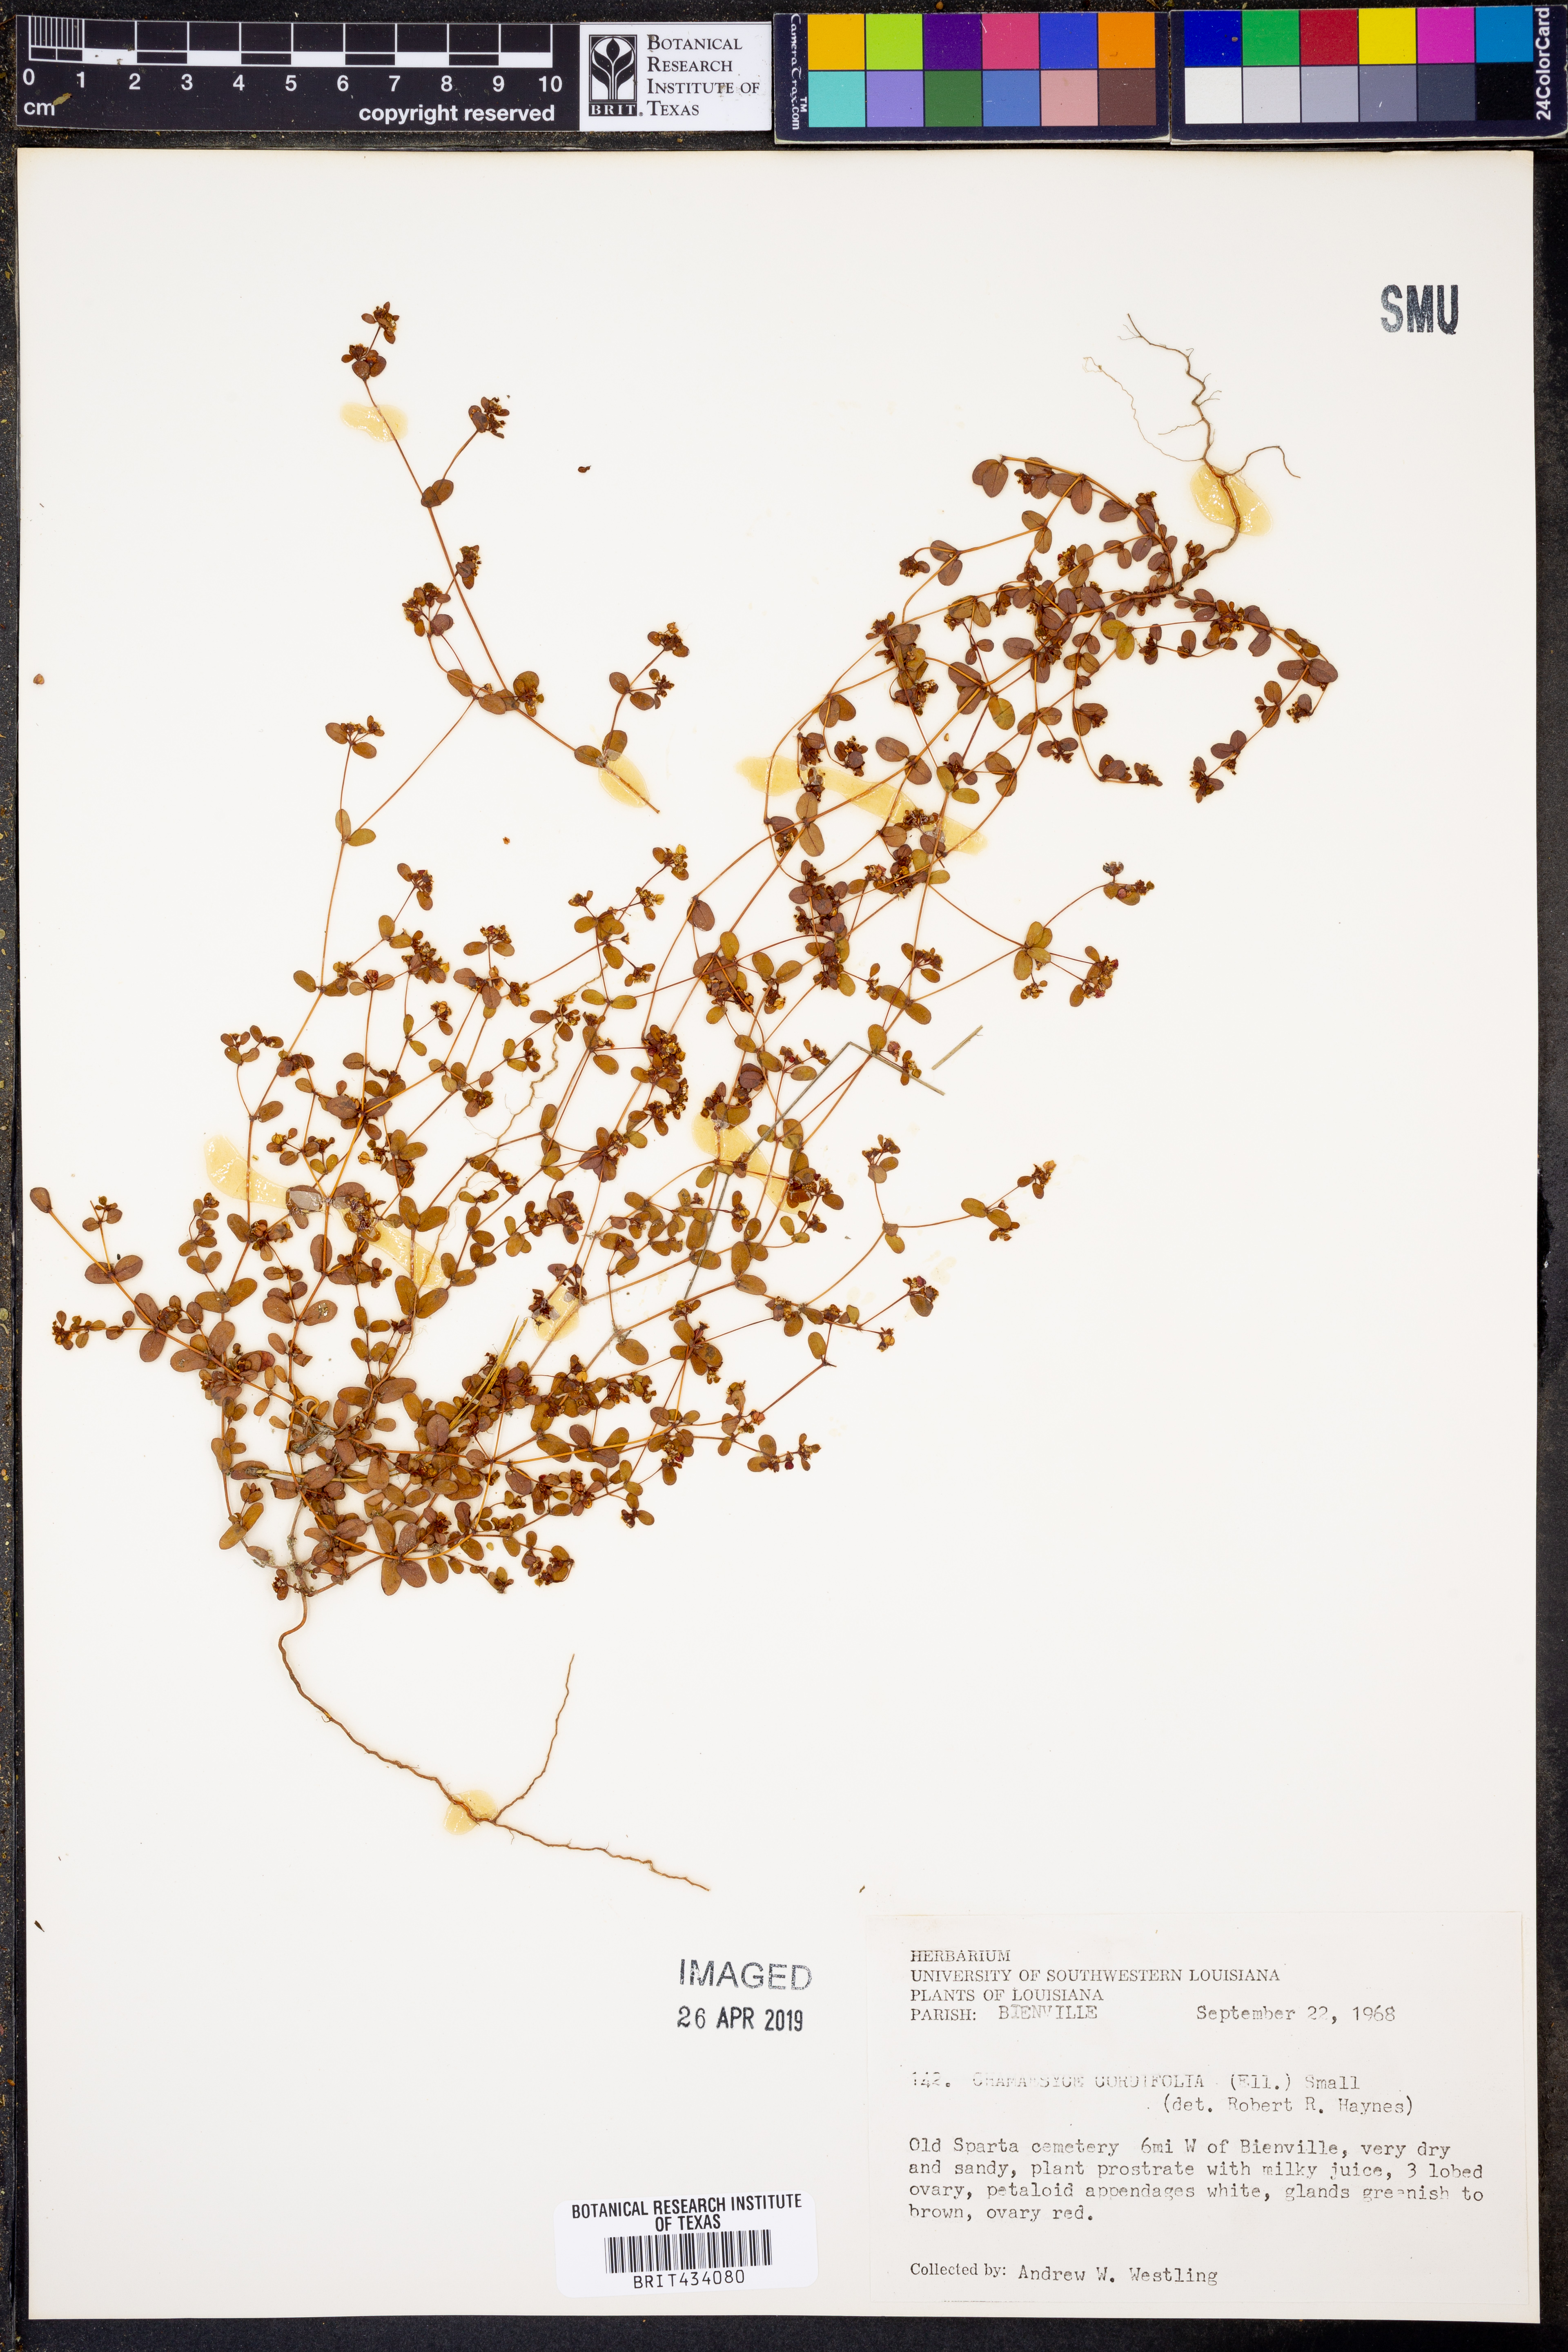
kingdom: Plantae
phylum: Tracheophyta
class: Magnoliopsida
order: Malpighiales
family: Euphorbiaceae
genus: Euphorbia
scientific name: Euphorbia cordifolia
